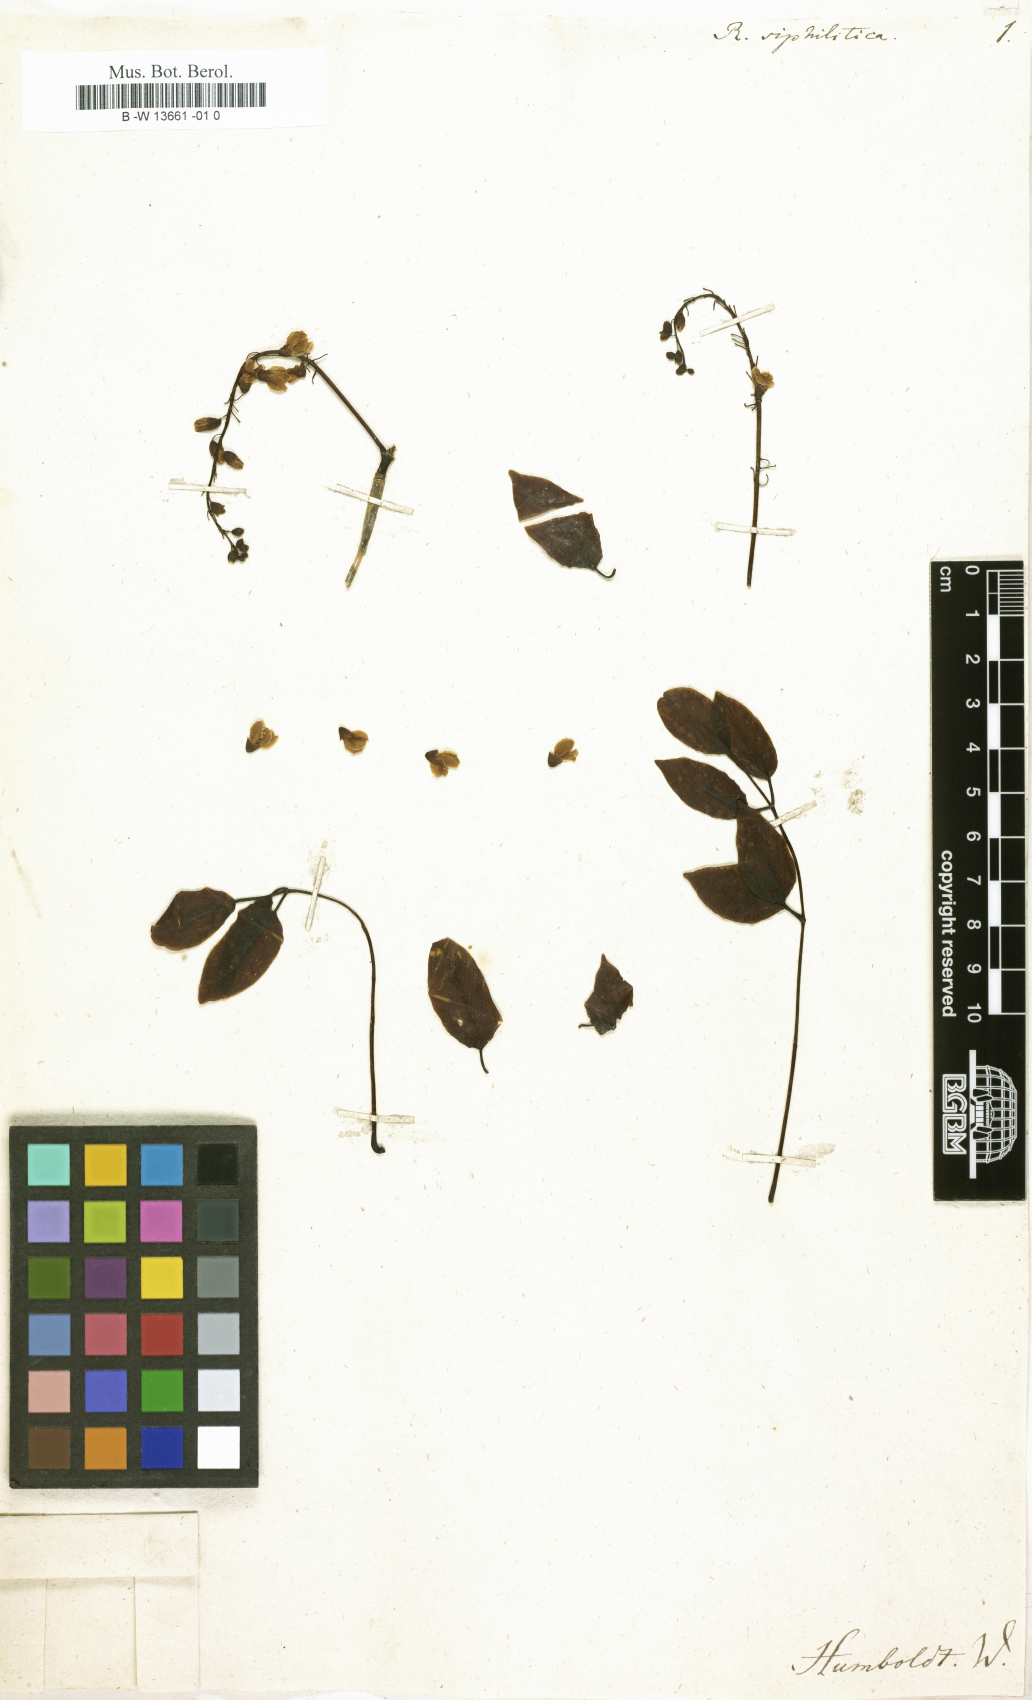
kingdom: Plantae
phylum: Tracheophyta
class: Magnoliopsida
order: Fabales
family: Fabaceae
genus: Robinia
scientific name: Robinia
